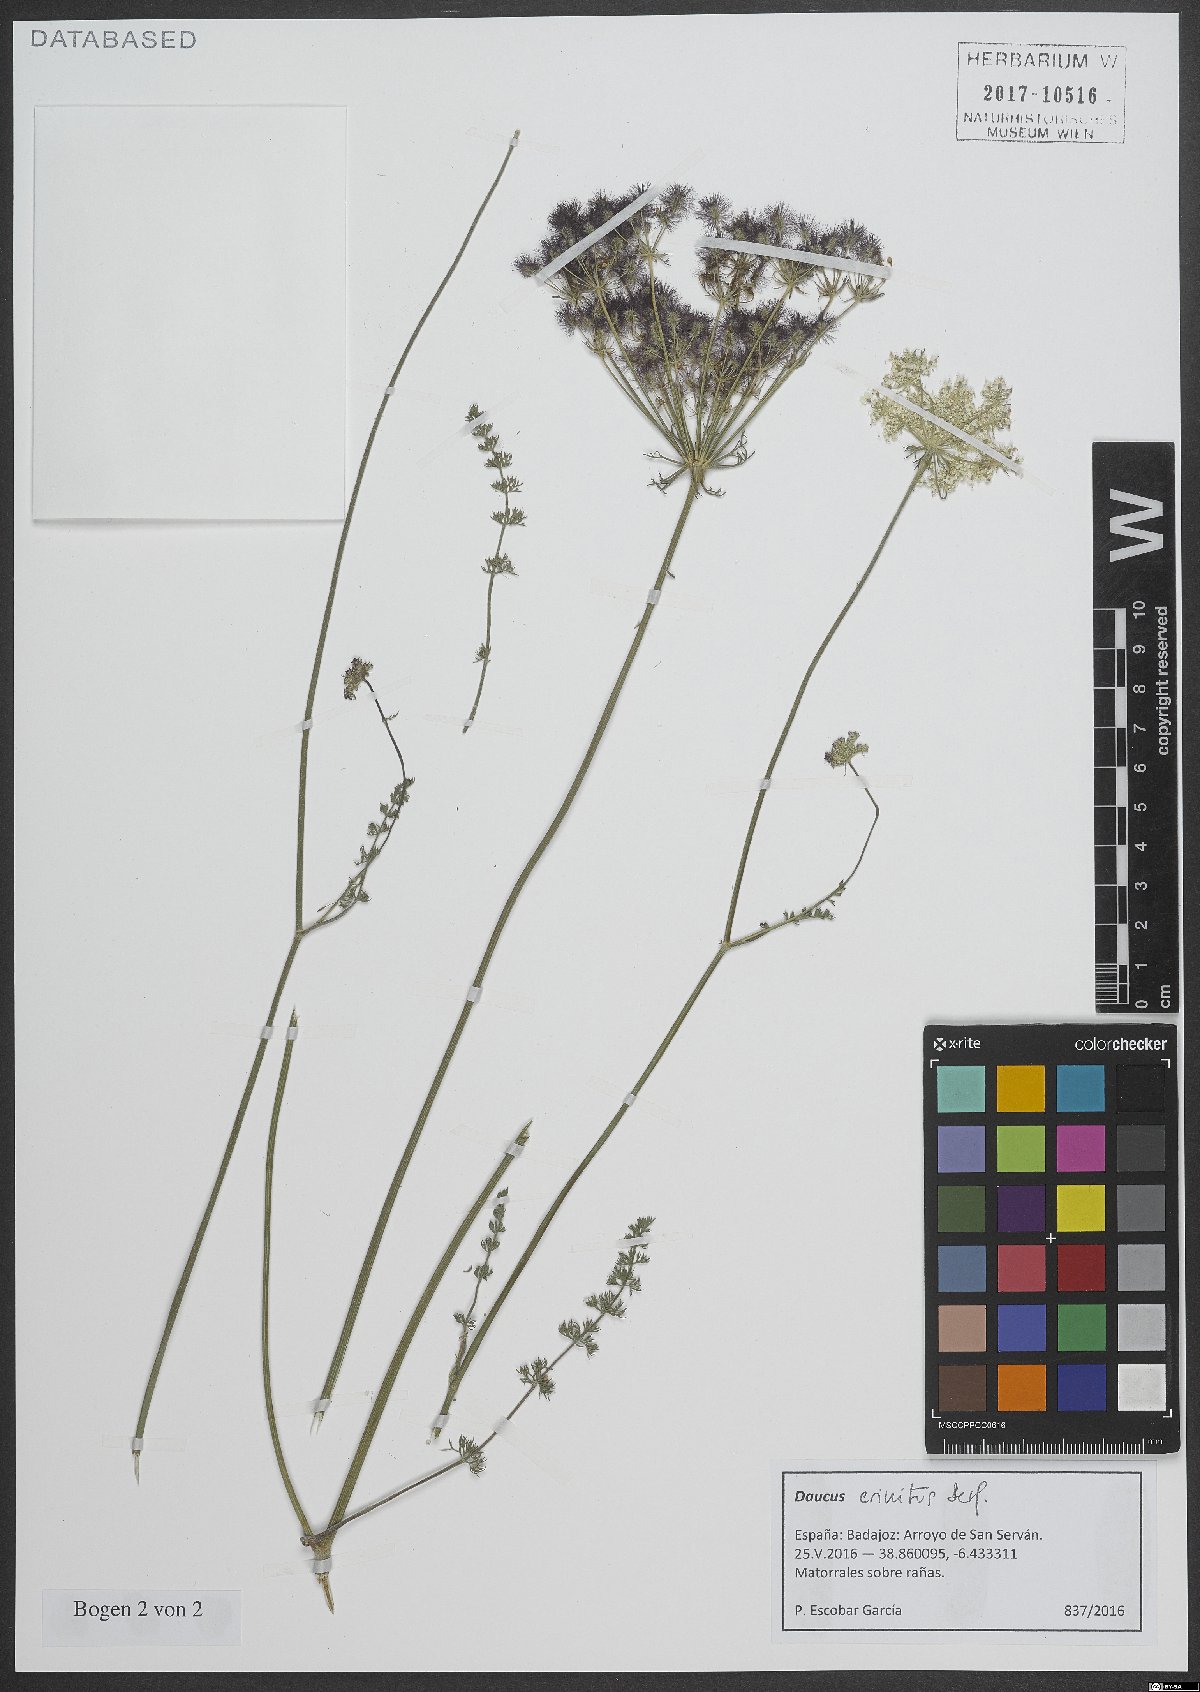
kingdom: Plantae
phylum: Tracheophyta
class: Magnoliopsida
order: Apiales
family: Apiaceae
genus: Daucus
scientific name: Daucus crinitus
